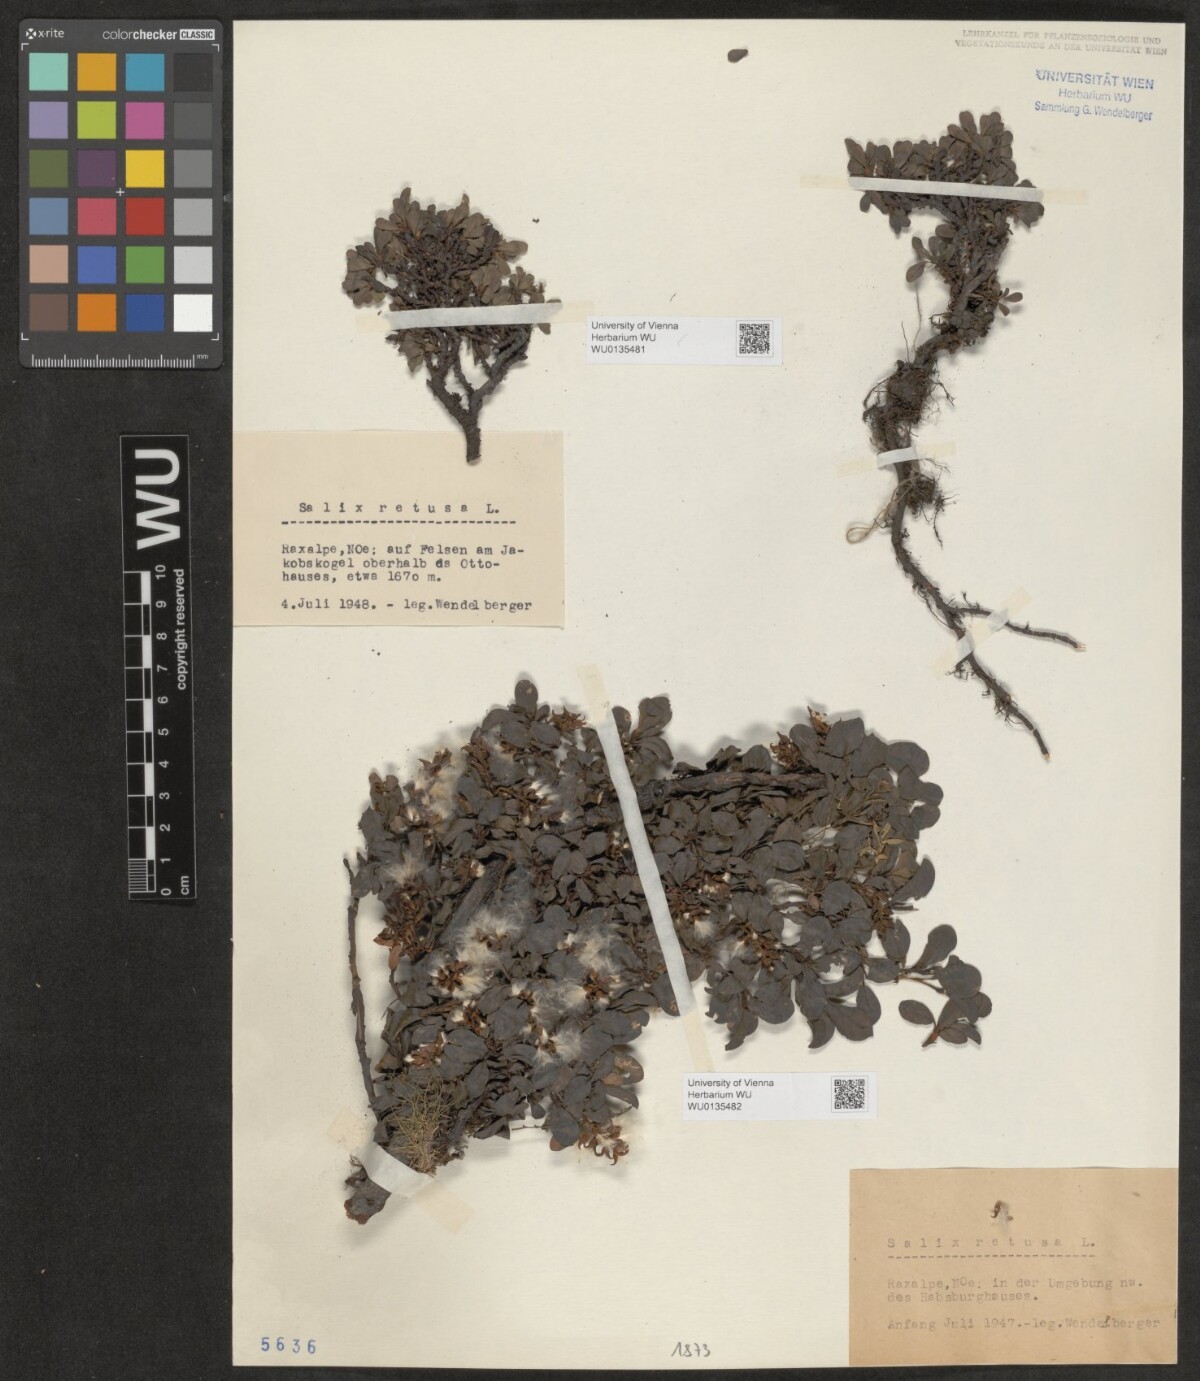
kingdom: Plantae
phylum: Tracheophyta
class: Magnoliopsida
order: Malpighiales
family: Salicaceae
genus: Salix
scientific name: Salix retusa
